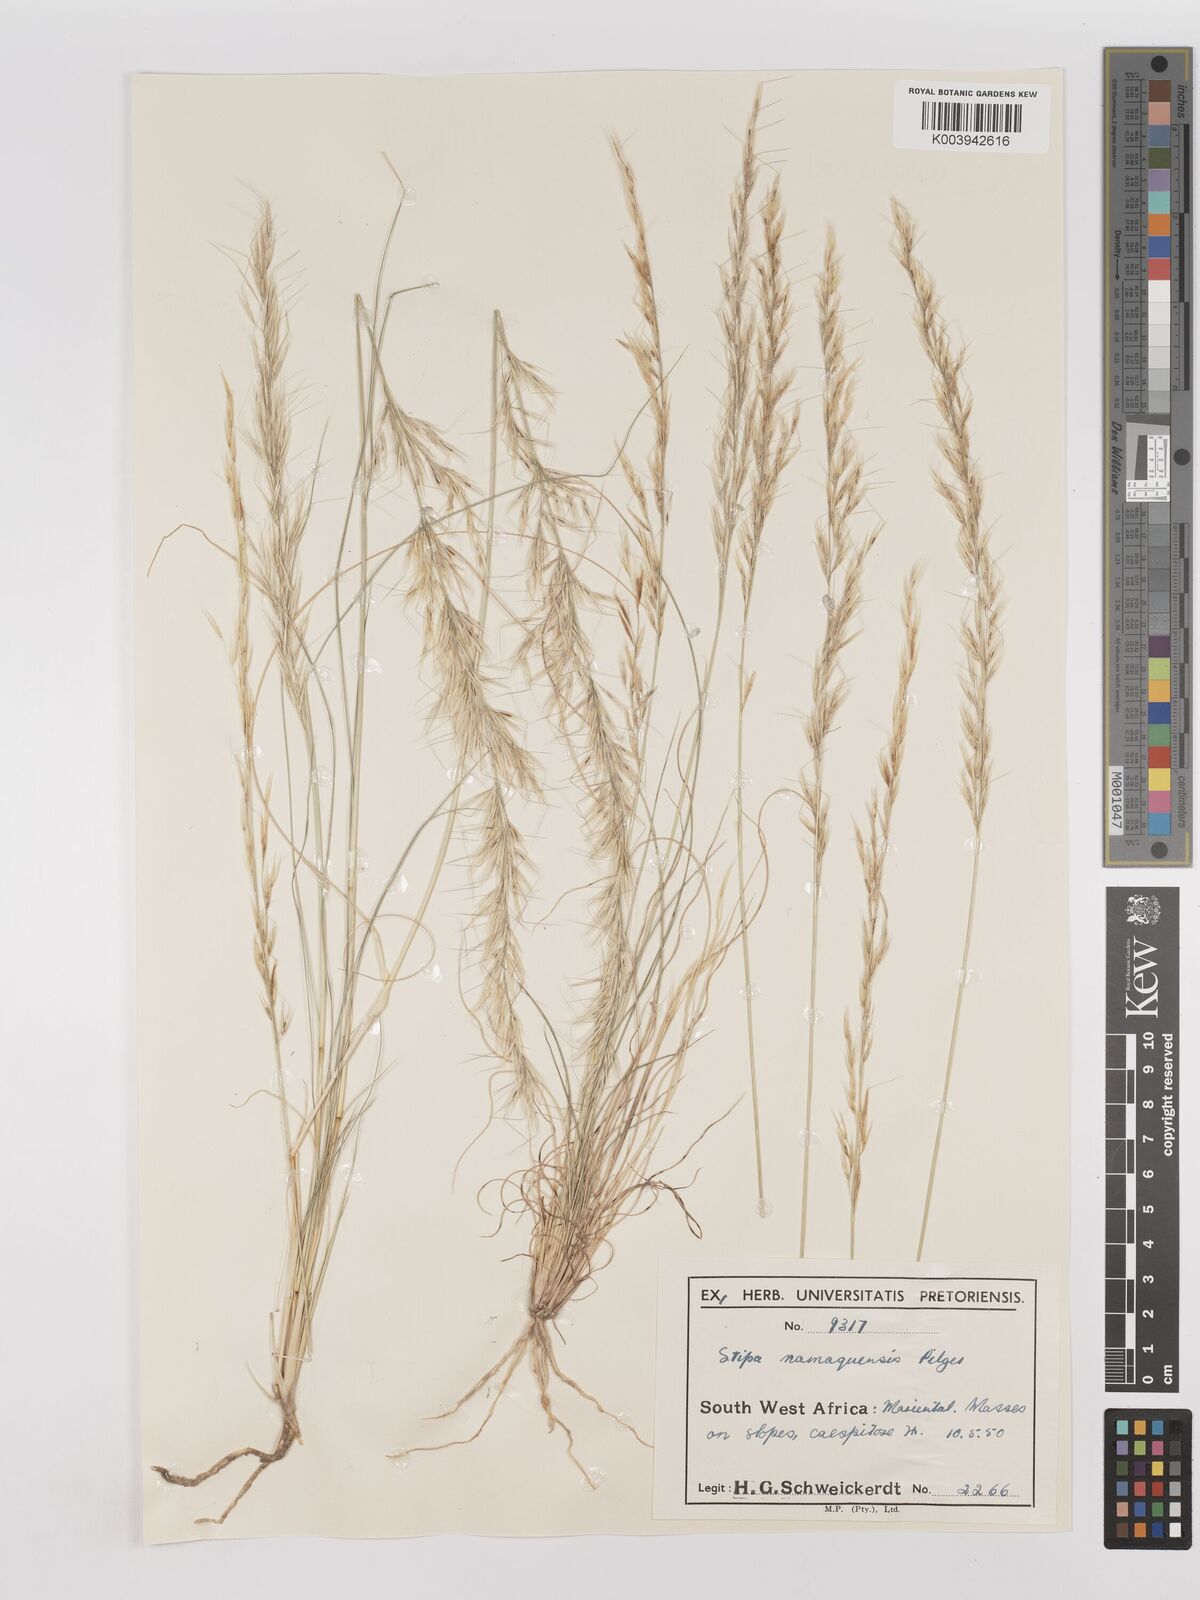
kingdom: Plantae
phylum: Tracheophyta
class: Liliopsida
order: Poales
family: Poaceae
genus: Stipagrostis
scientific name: Stipagrostis anomala
